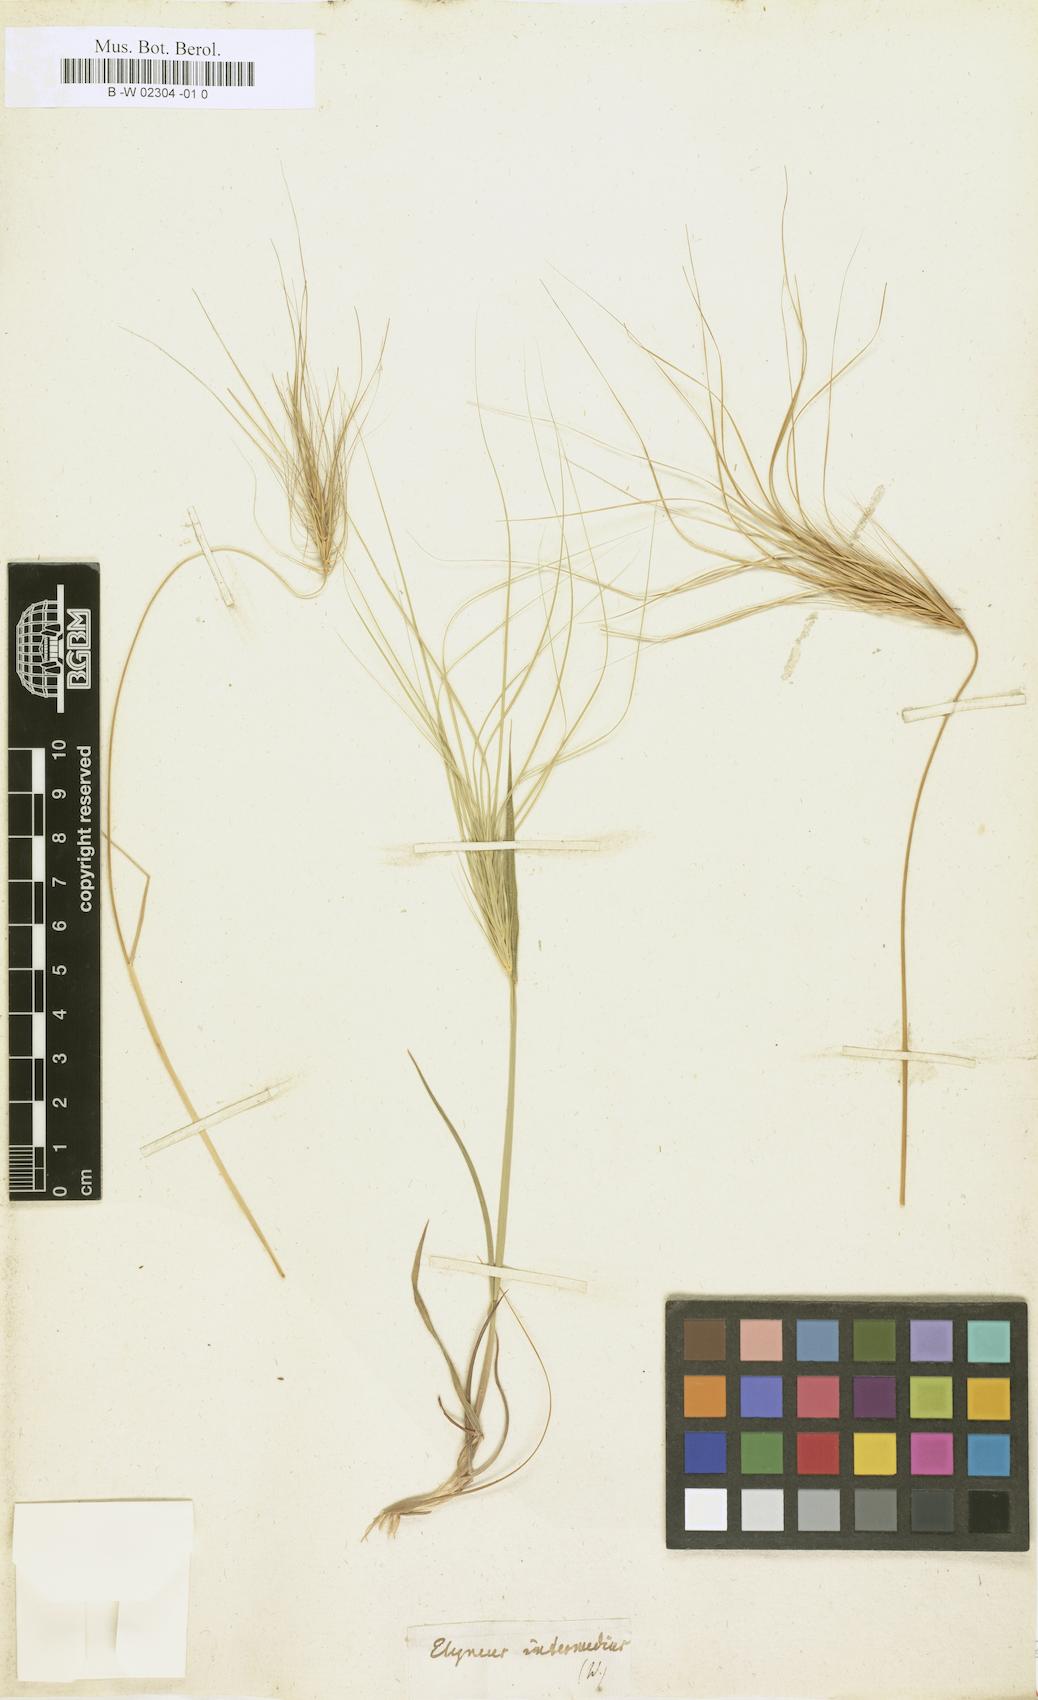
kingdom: Plantae
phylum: Tracheophyta
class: Liliopsida
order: Poales
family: Poaceae
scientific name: Poaceae
